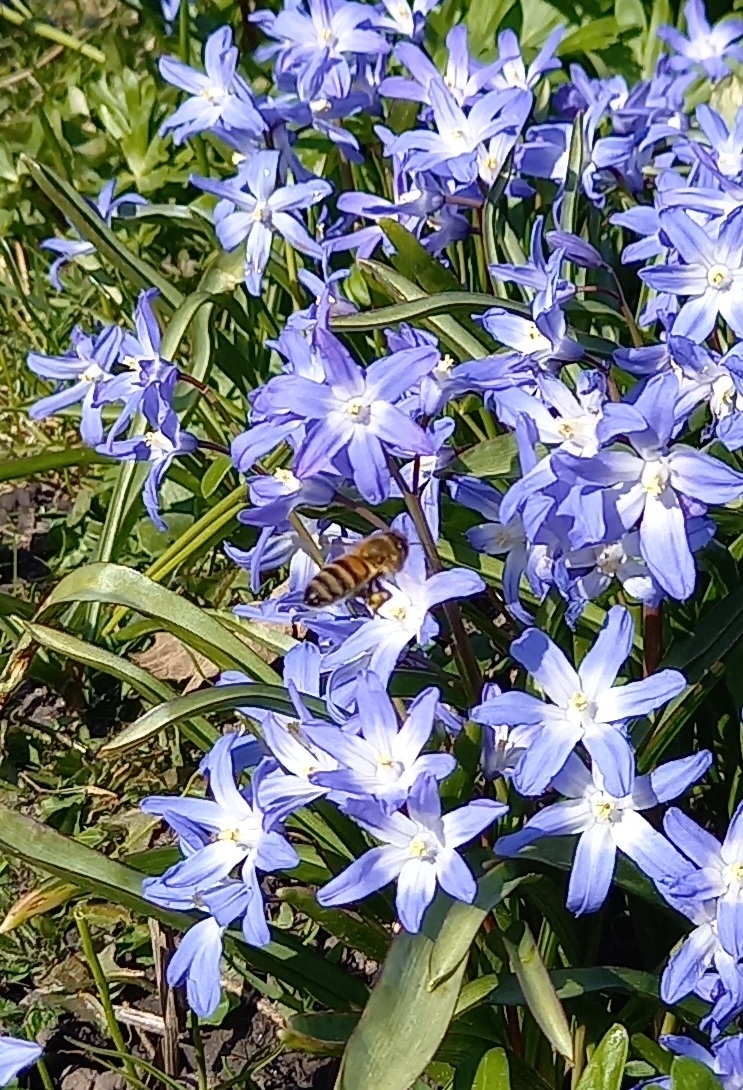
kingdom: Animalia
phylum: Arthropoda
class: Insecta
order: Hymenoptera
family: Apidae
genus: Apis
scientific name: Apis mellifera
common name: Honningbi
